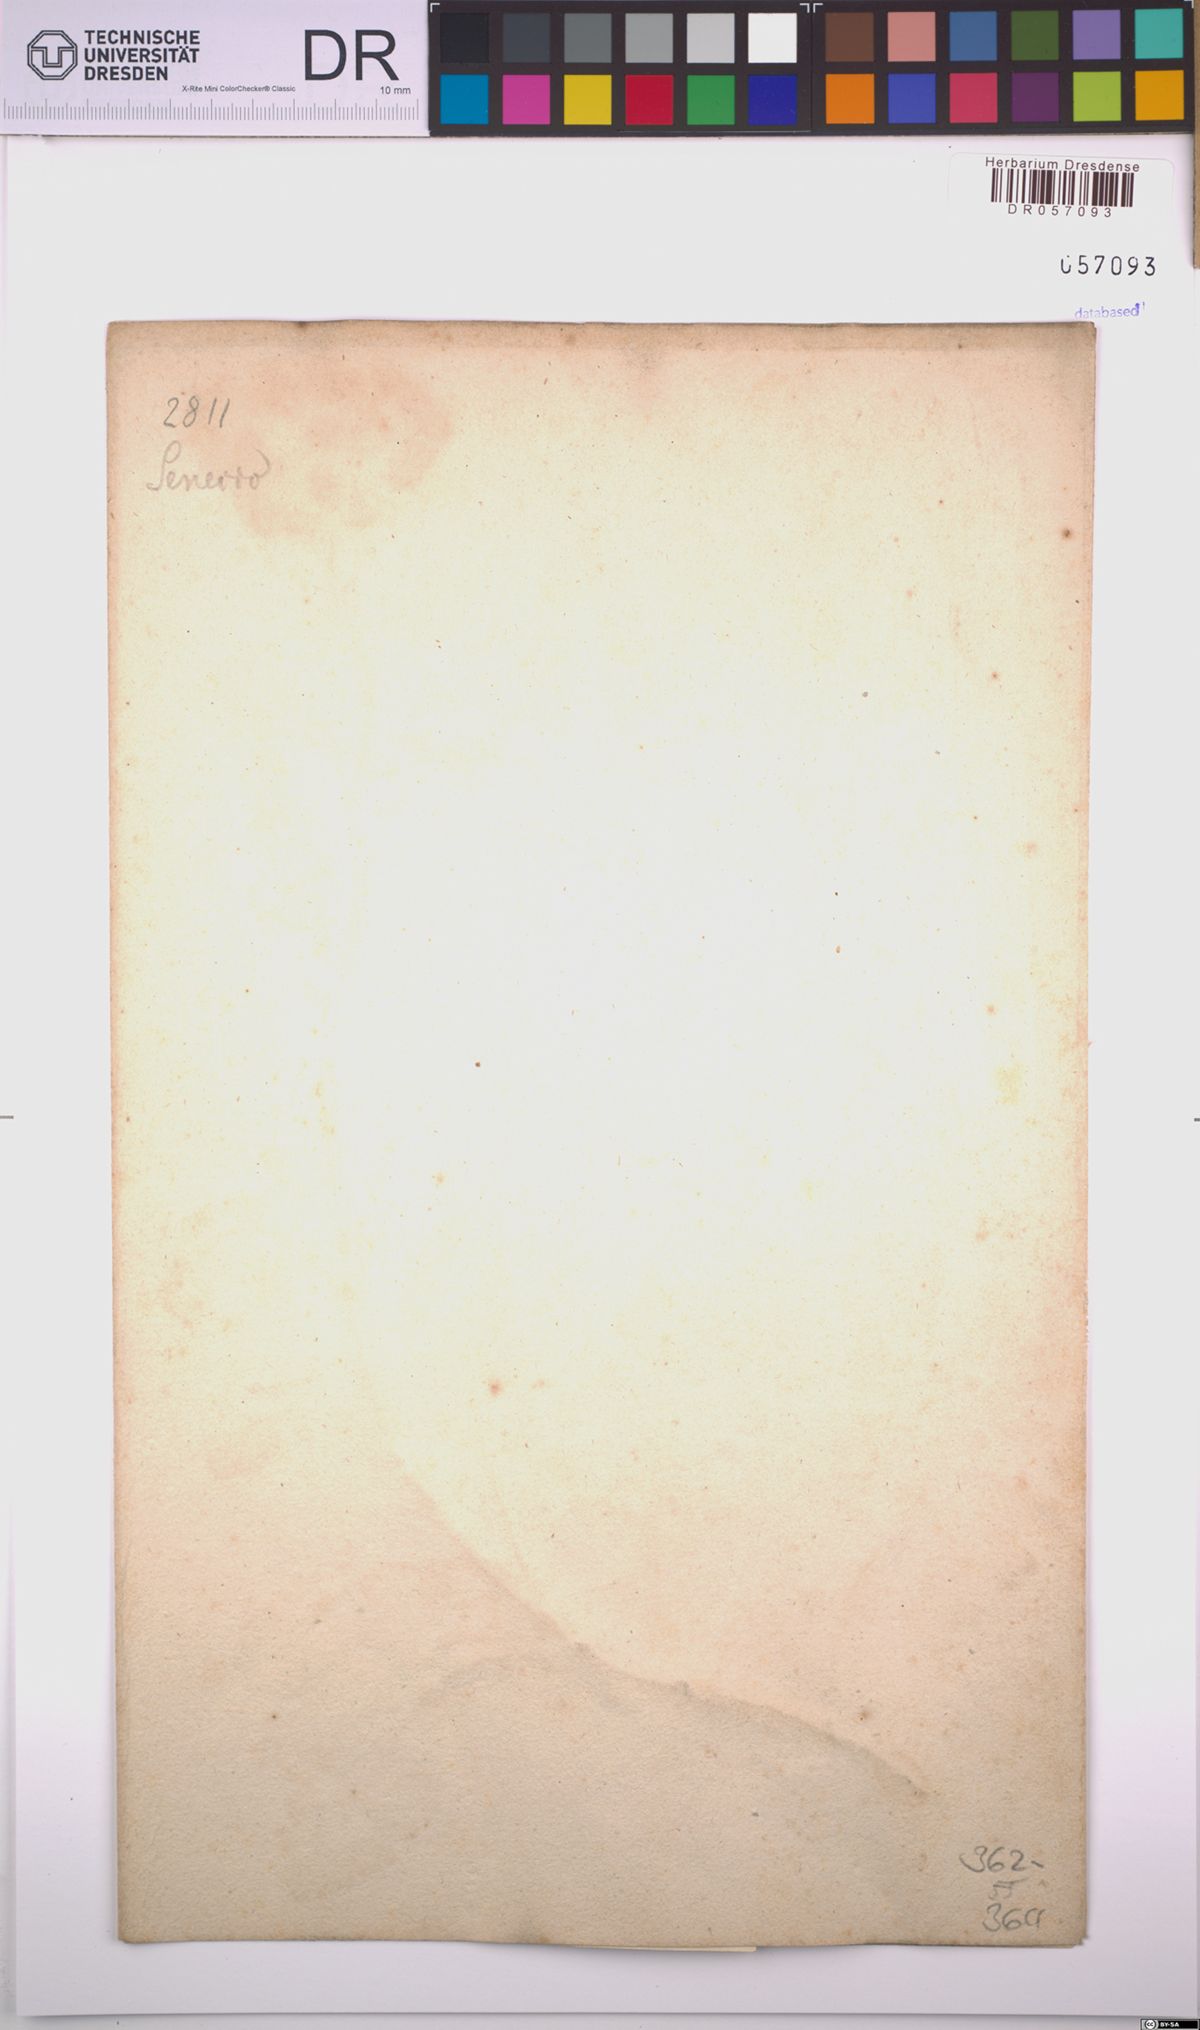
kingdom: Plantae
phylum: Tracheophyta
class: Magnoliopsida
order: Asterales
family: Asteraceae
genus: Senecio
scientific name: Senecio maritimus
